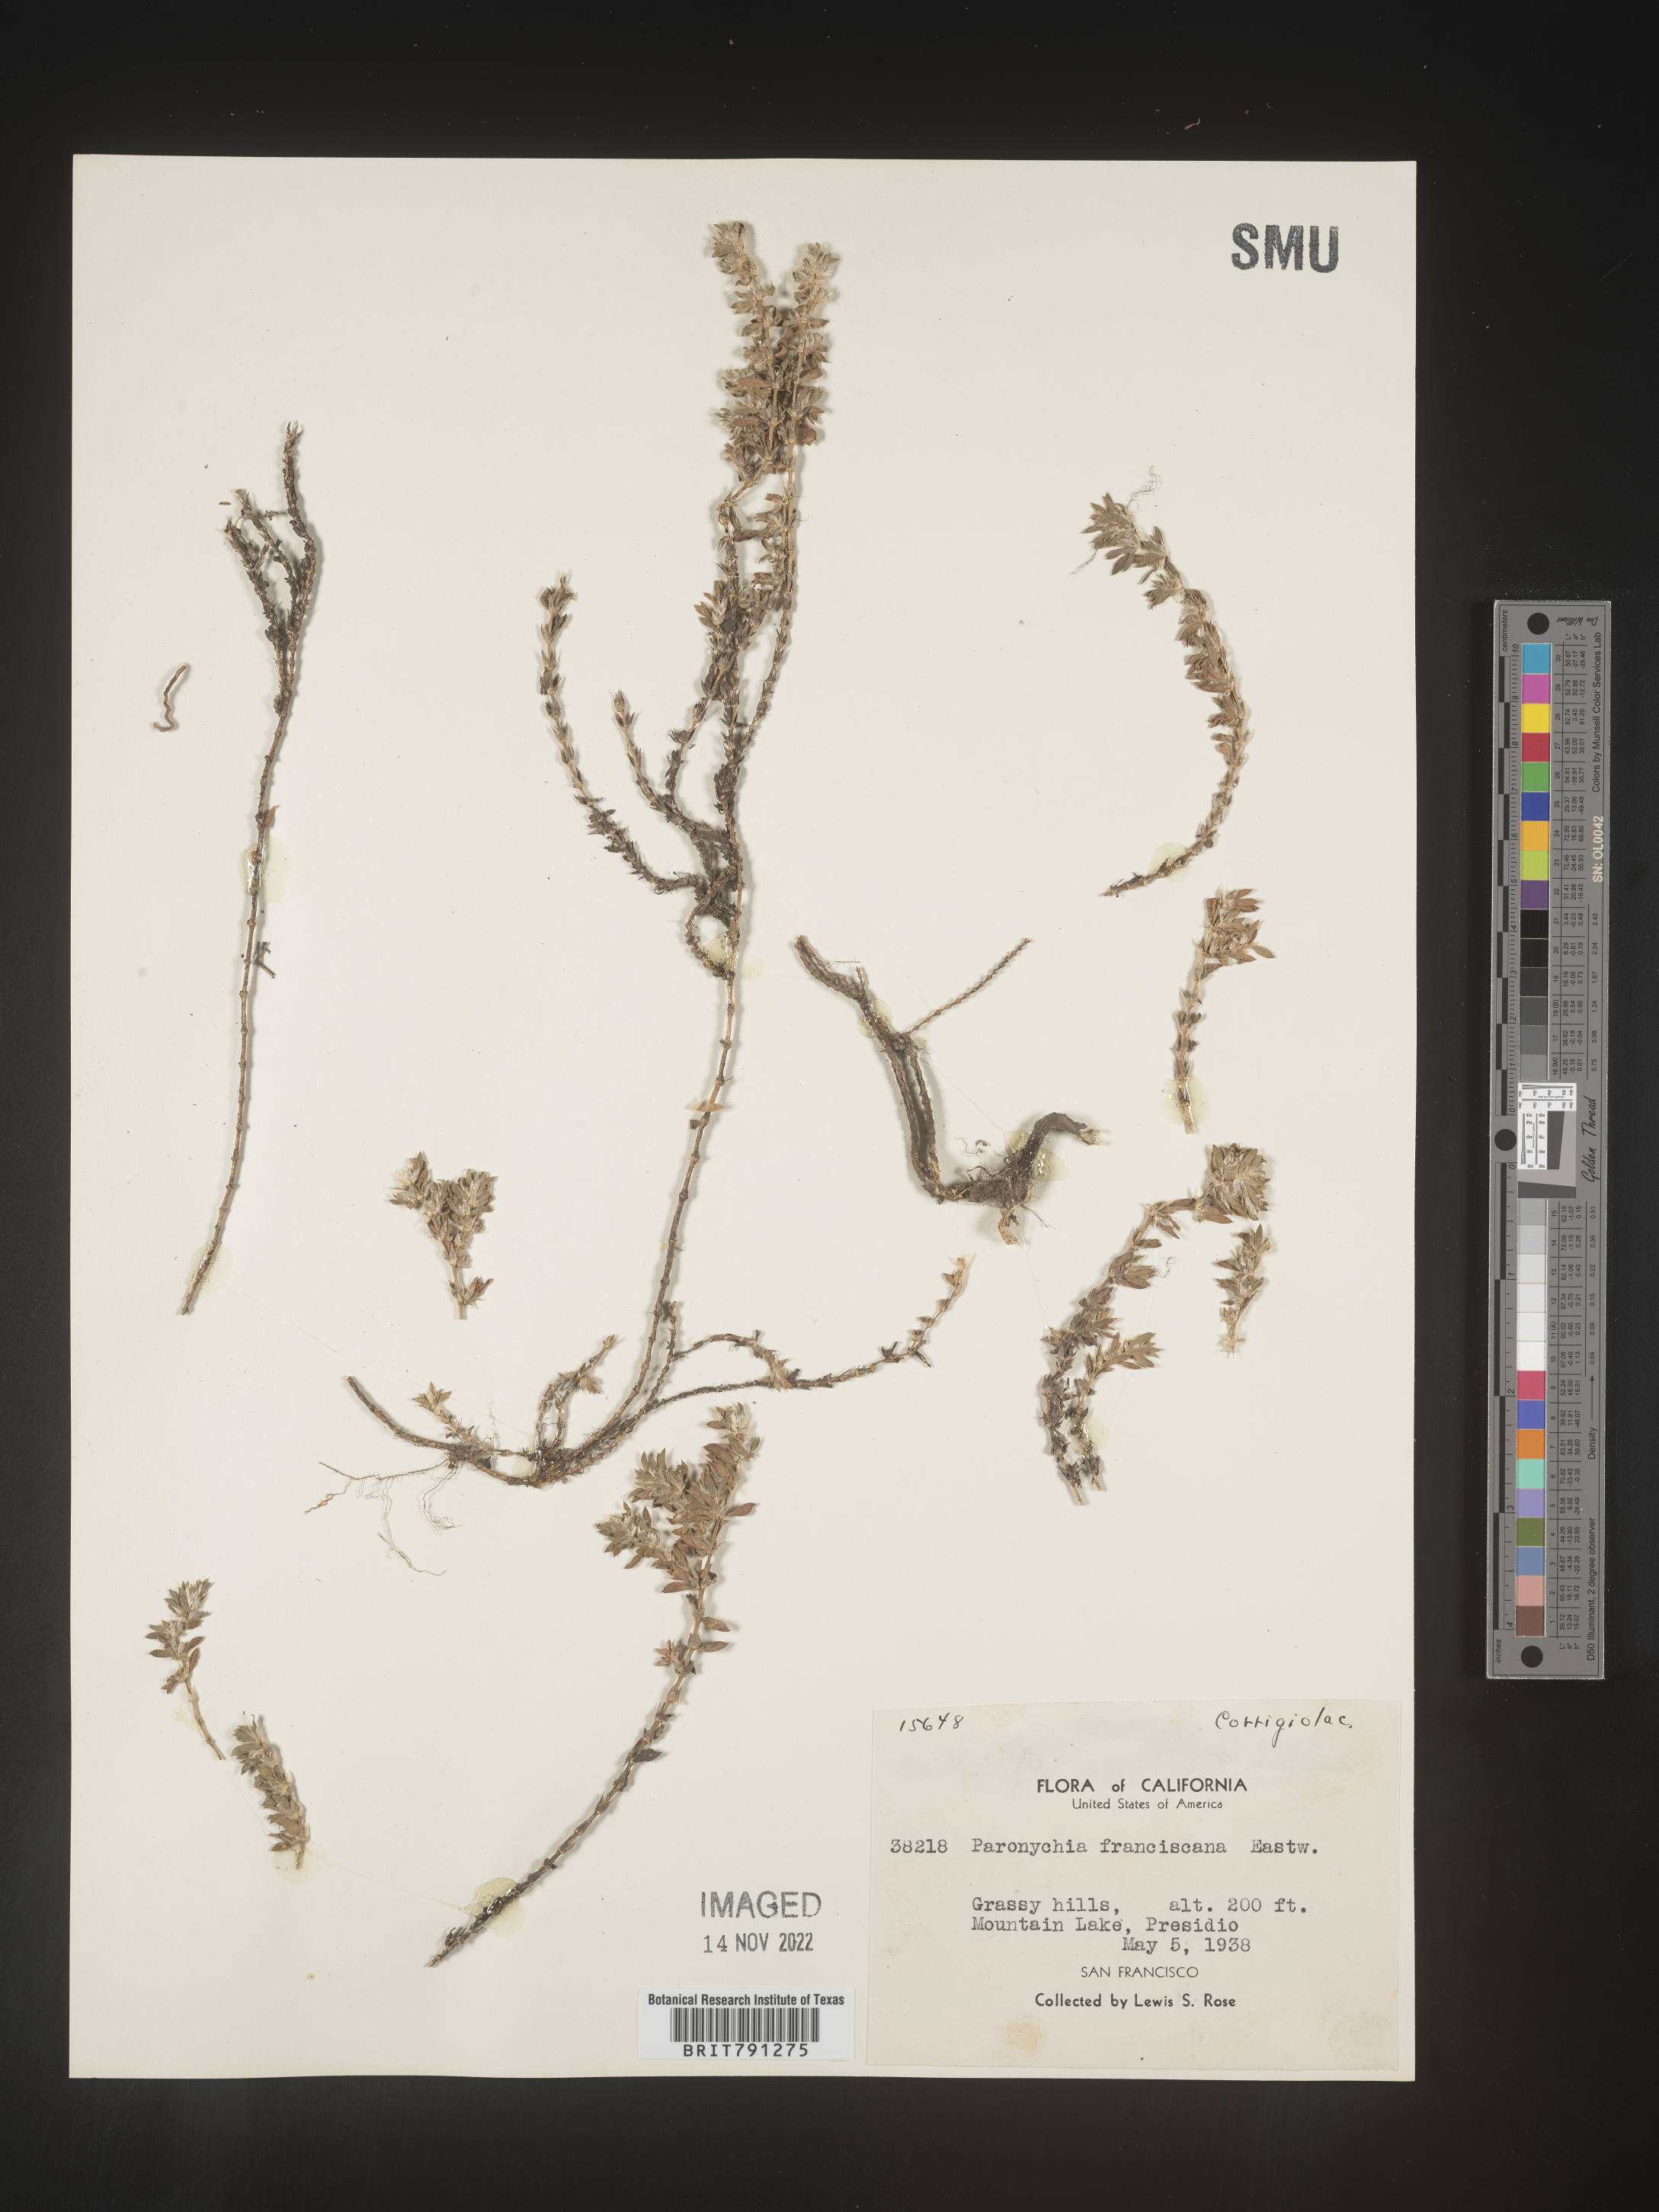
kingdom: Plantae
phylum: Tracheophyta
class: Magnoliopsida
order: Caryophyllales
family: Caryophyllaceae
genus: Paronychia
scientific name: Paronychia franciscana
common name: San francisco nailwort
